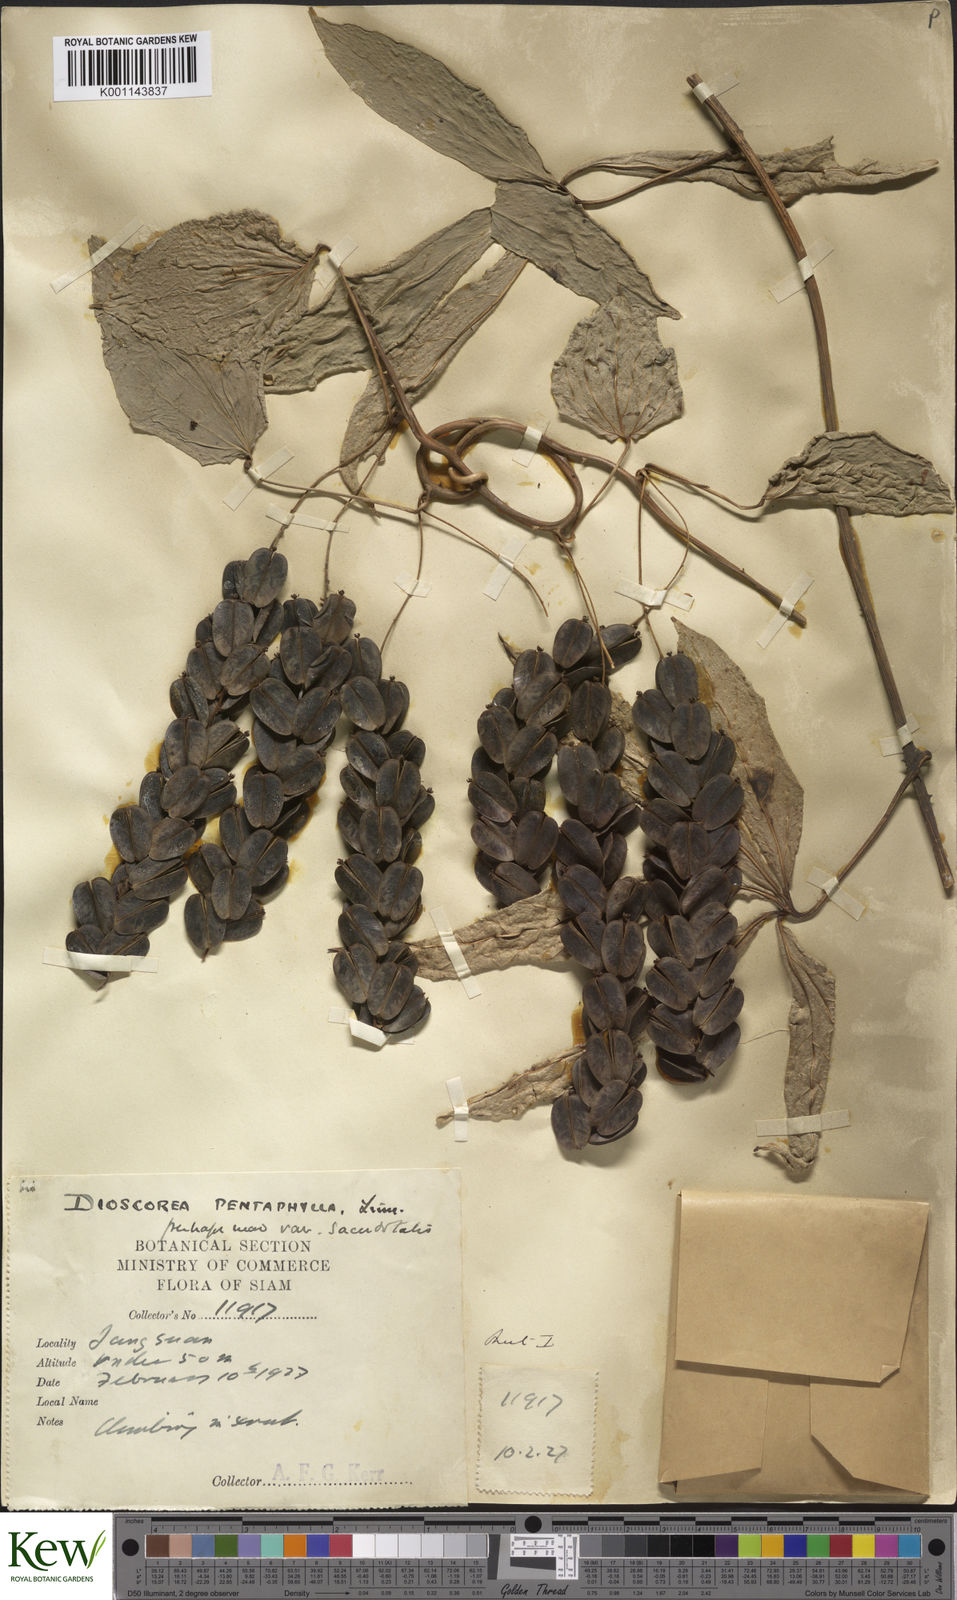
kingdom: Plantae
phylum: Tracheophyta
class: Liliopsida
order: Dioscoreales
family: Dioscoreaceae
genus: Dioscorea
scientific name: Dioscorea pentaphylla
